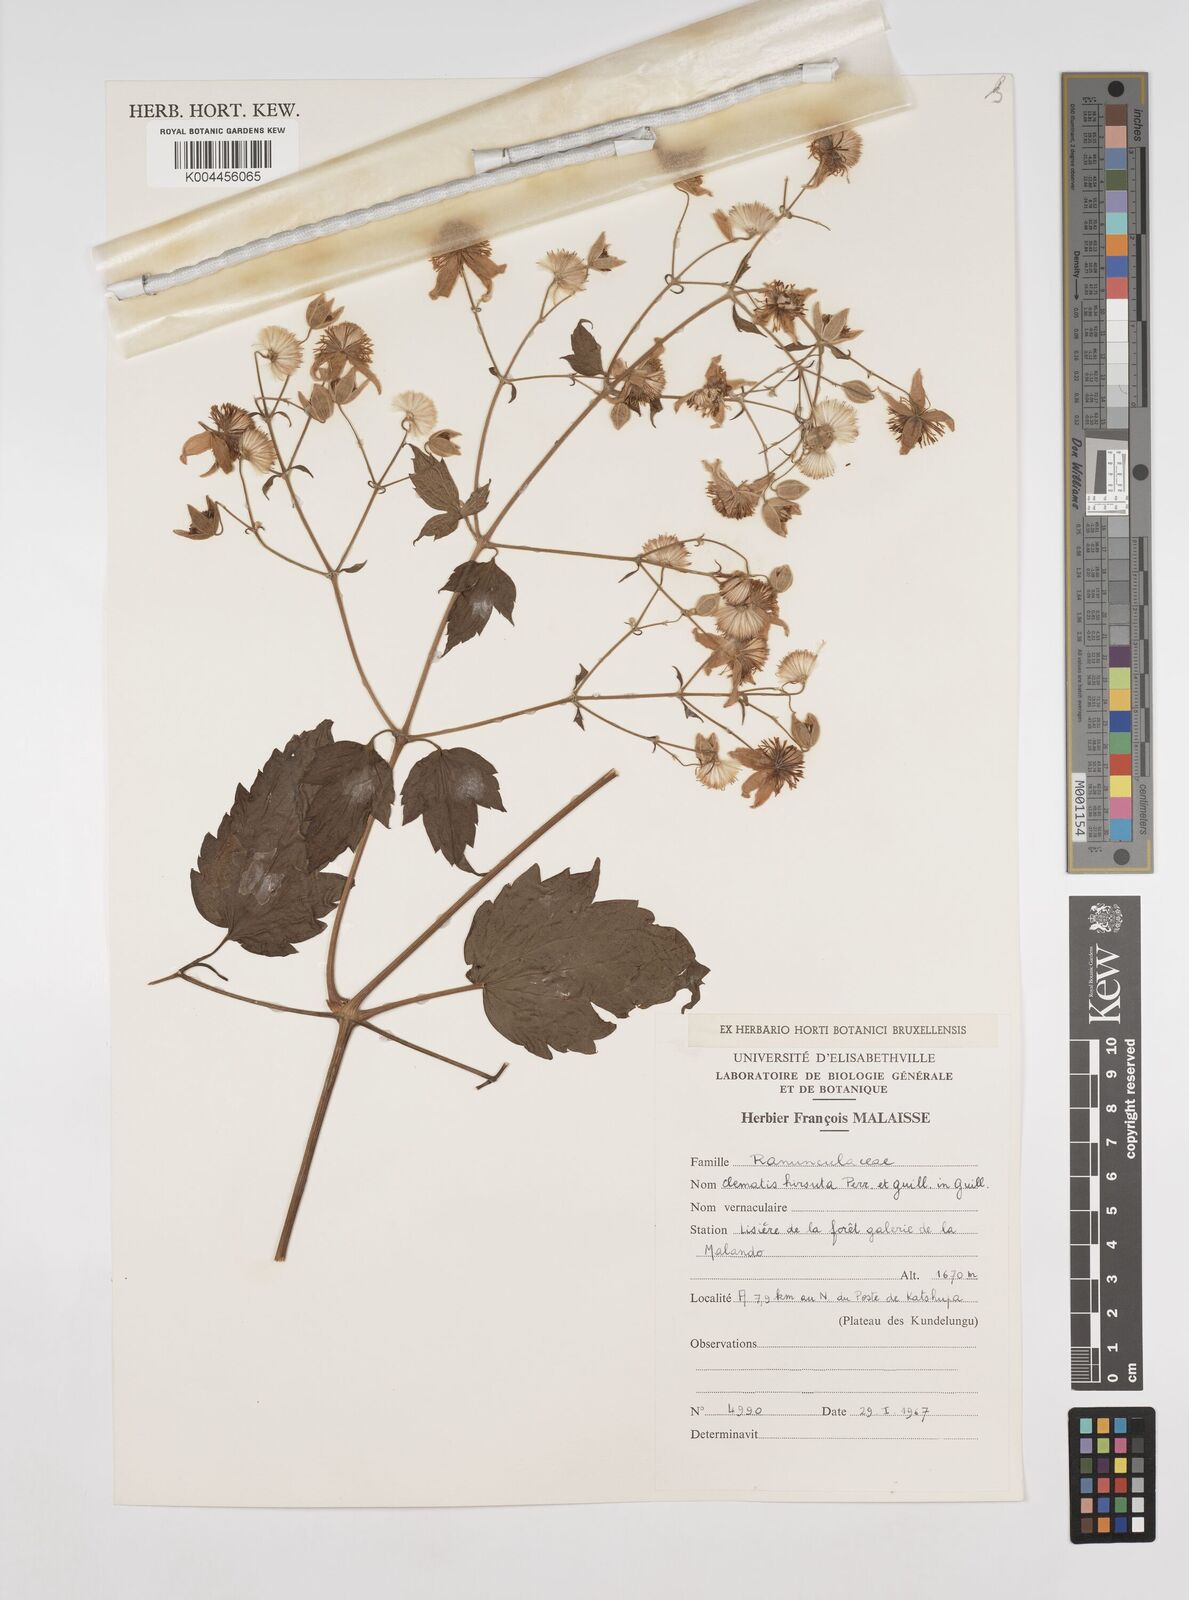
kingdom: Plantae
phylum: Tracheophyta
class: Magnoliopsida
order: Ranunculales
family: Ranunculaceae
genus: Clematis
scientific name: Clematis hirsuta
